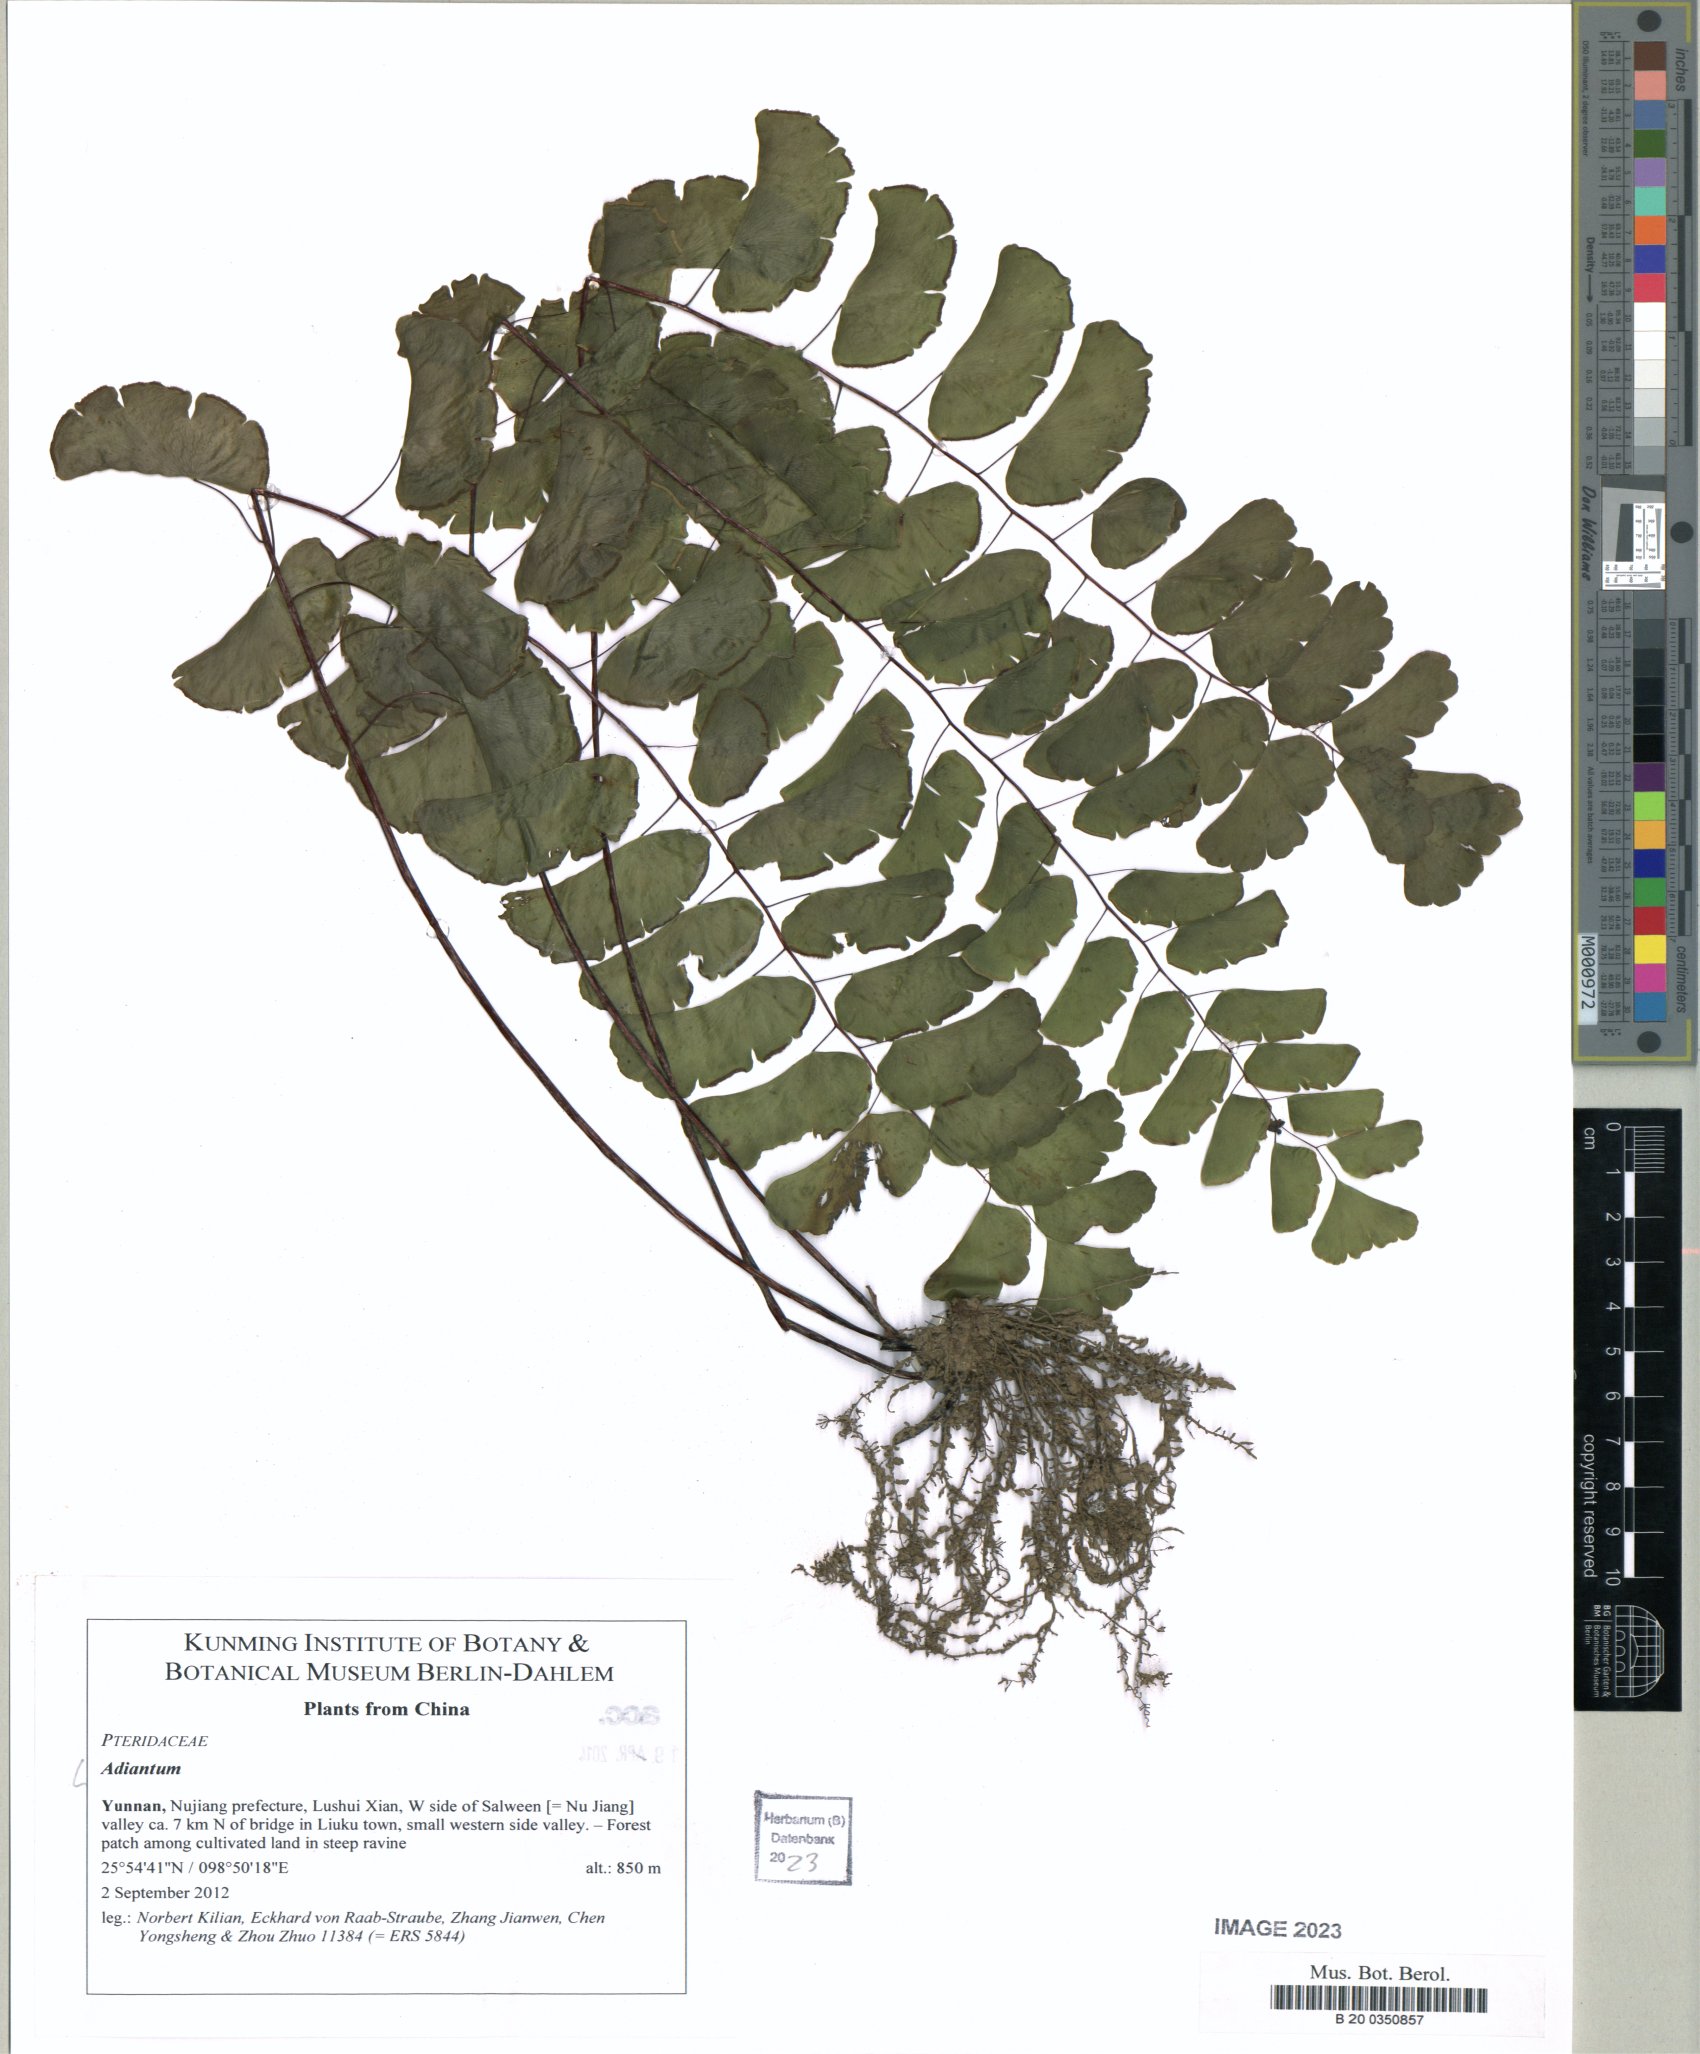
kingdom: Plantae
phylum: Tracheophyta
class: Polypodiopsida
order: Polypodiales
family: Pteridaceae
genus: Adiantum
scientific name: Adiantum
